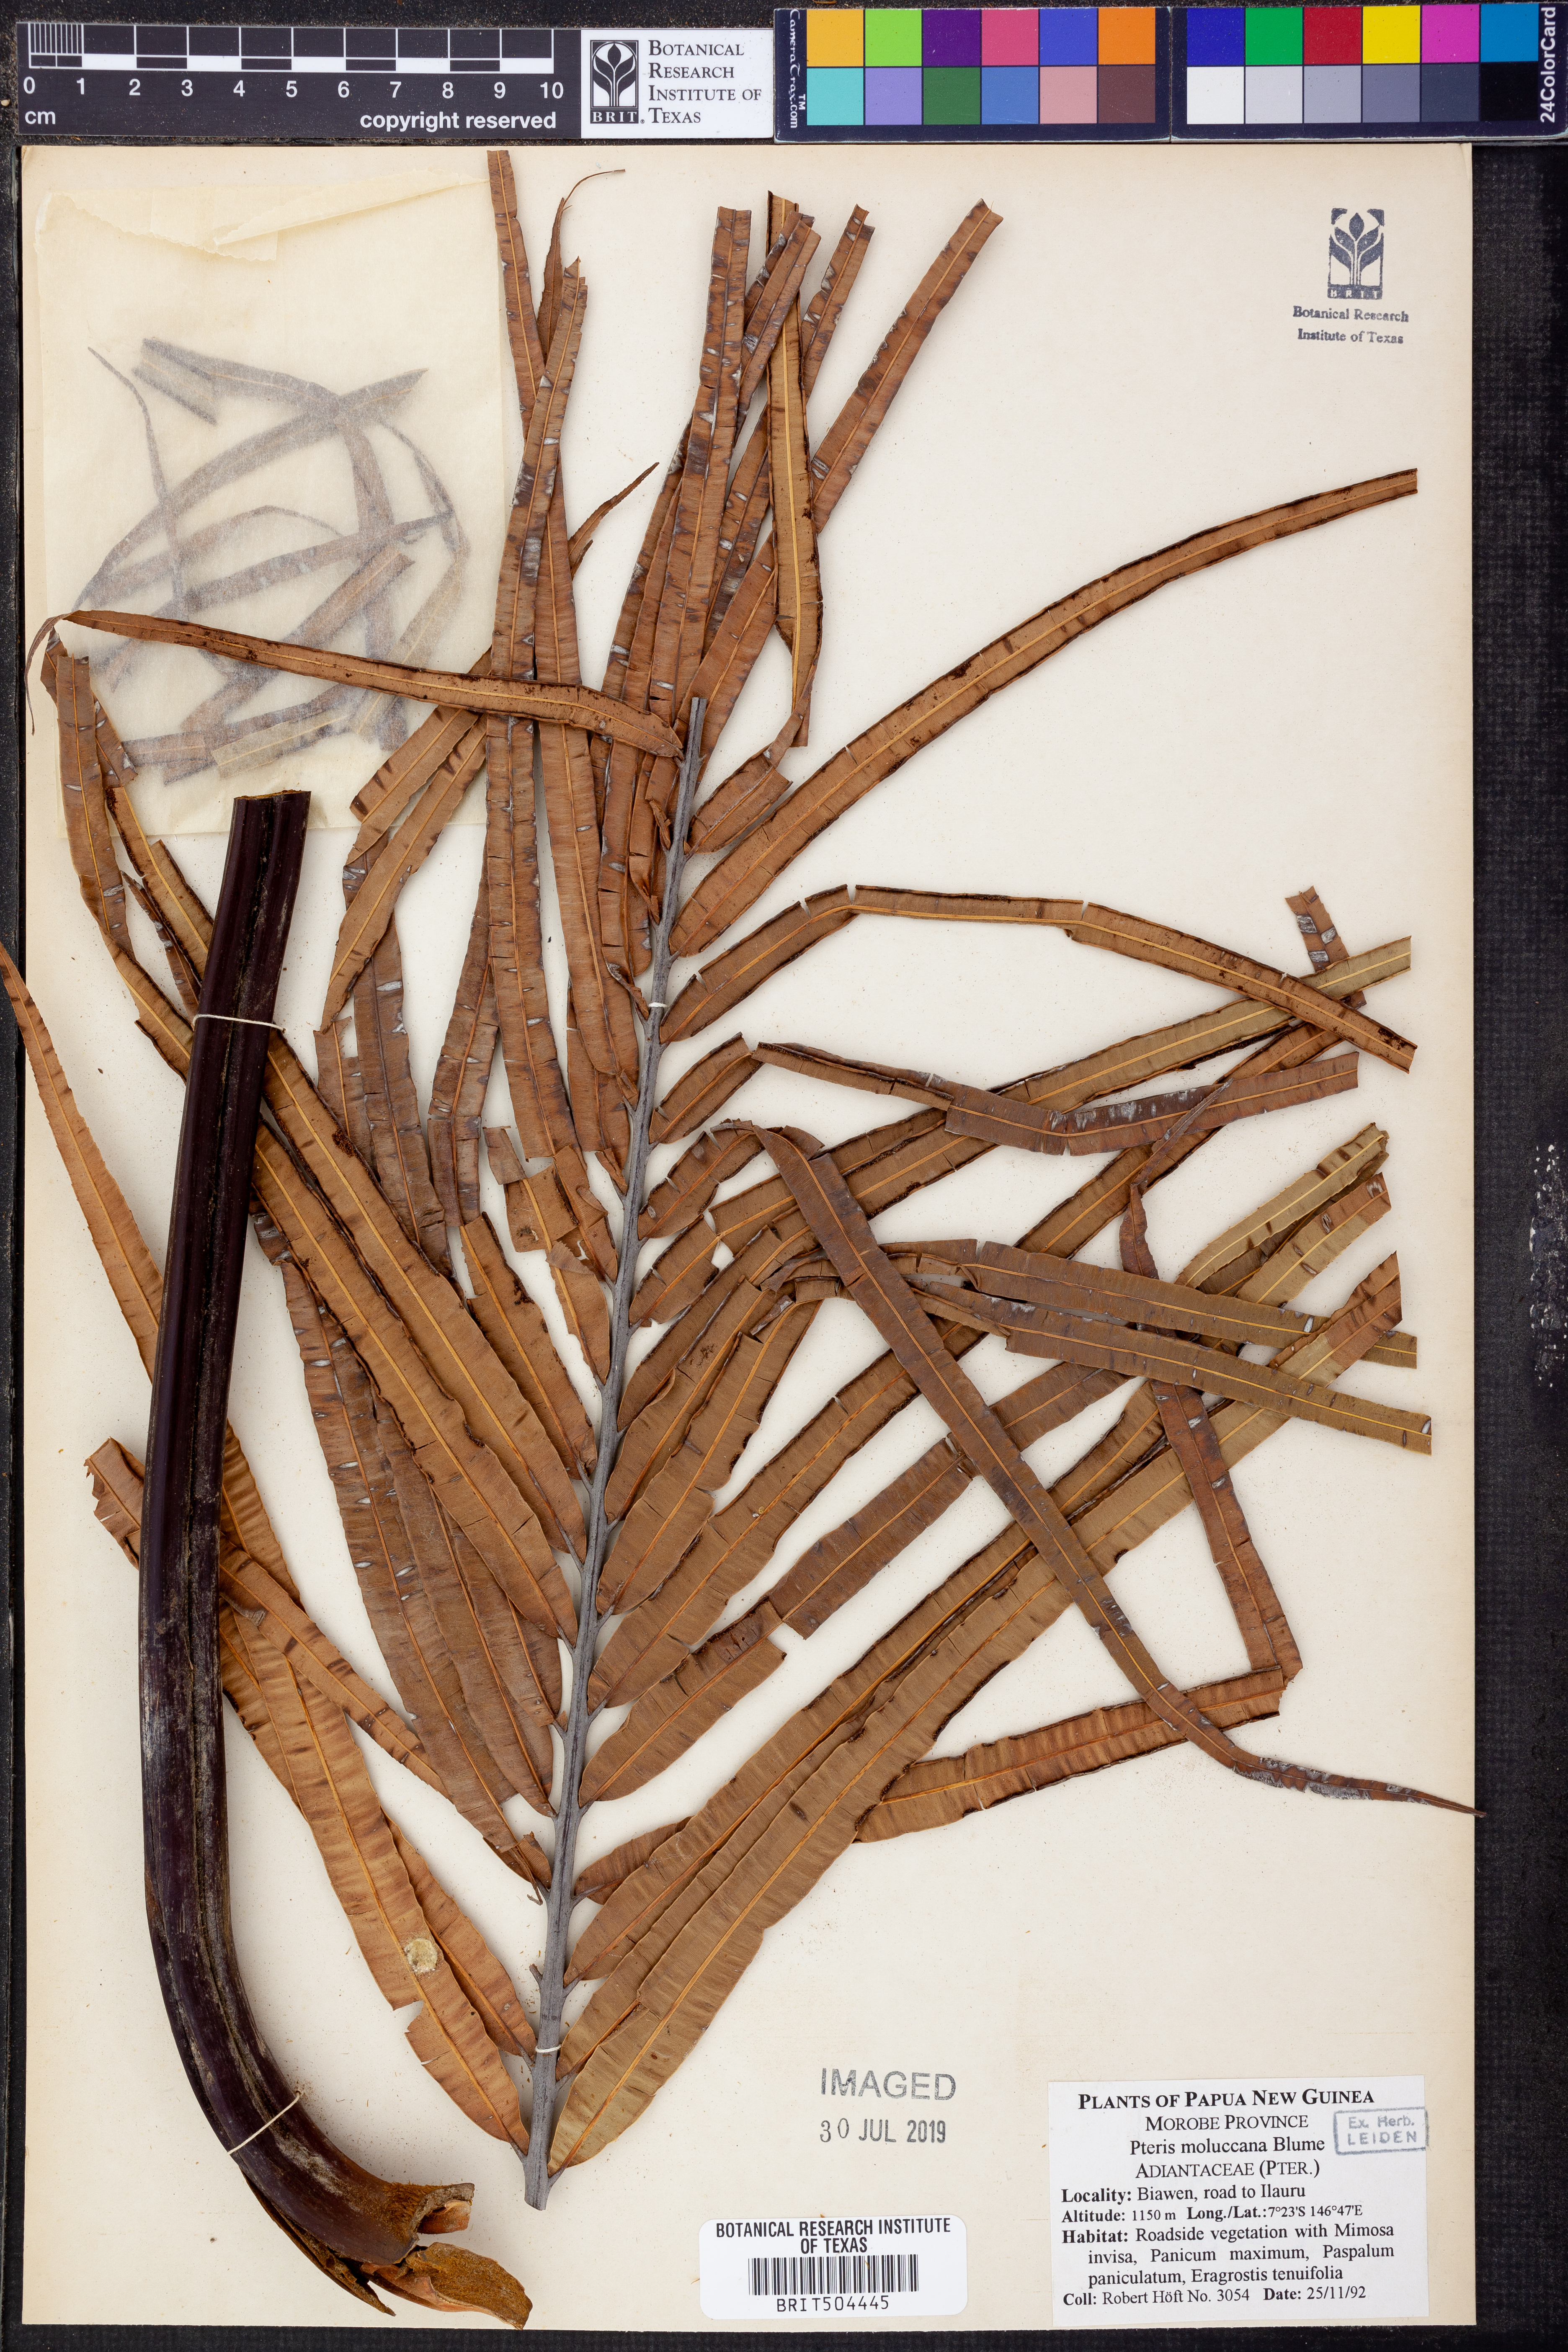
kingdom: Plantae
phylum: Tracheophyta
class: Polypodiopsida
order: Polypodiales
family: Pteridaceae
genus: Pteris
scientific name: Pteris moluccana
